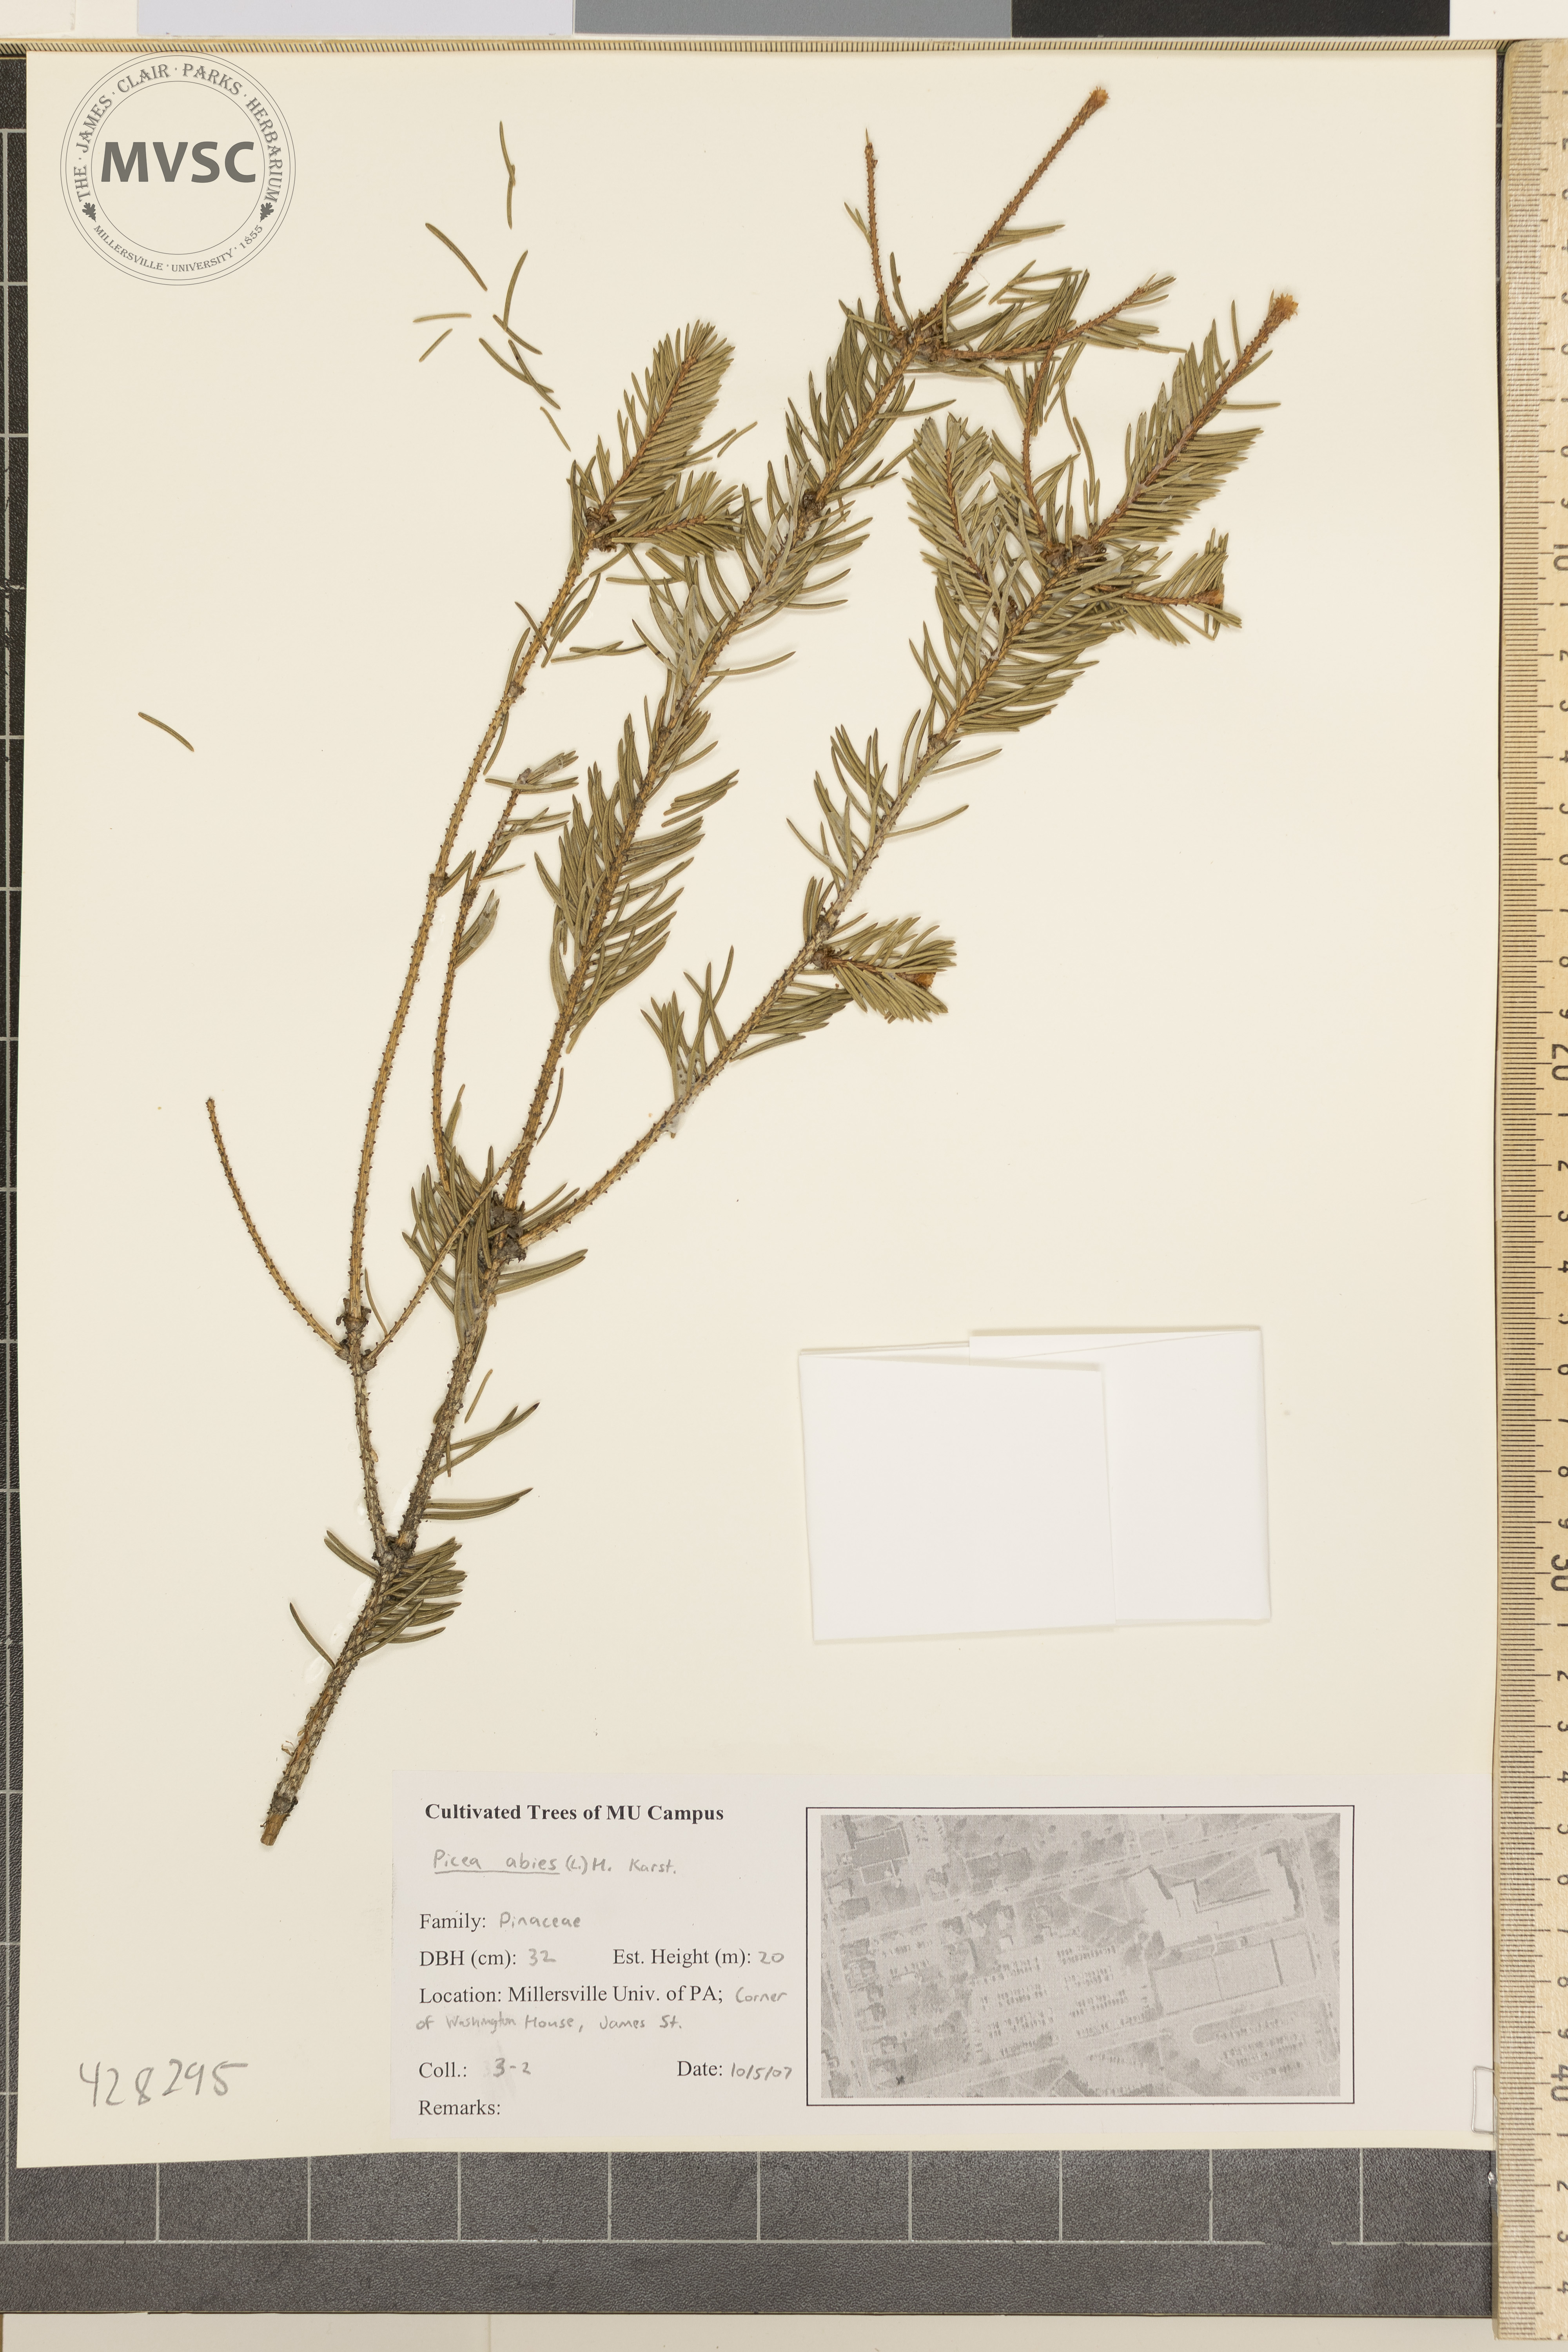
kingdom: Plantae
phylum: Tracheophyta
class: Pinopsida
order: Pinales
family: Pinaceae
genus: Picea
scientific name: Picea abies
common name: Norway spruce
